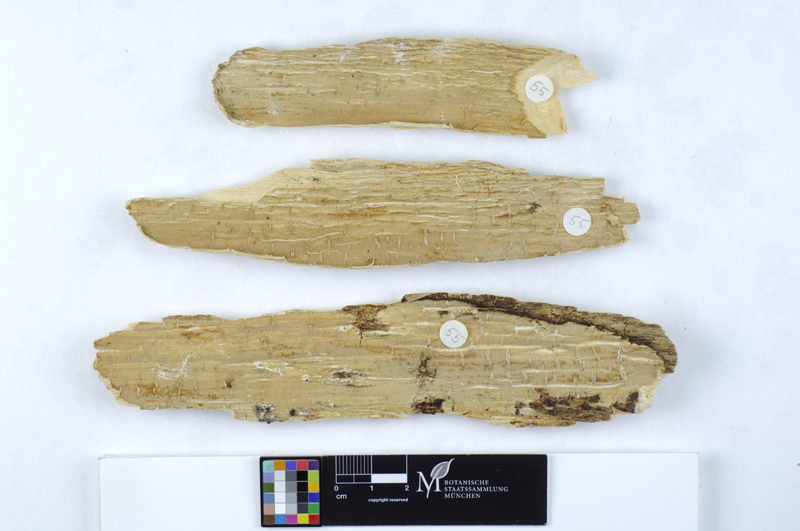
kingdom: Fungi
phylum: Basidiomycota
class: Agaricomycetes
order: Russulales
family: Stereaceae
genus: Megalocystidium
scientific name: Megalocystidium leucoxanthum
